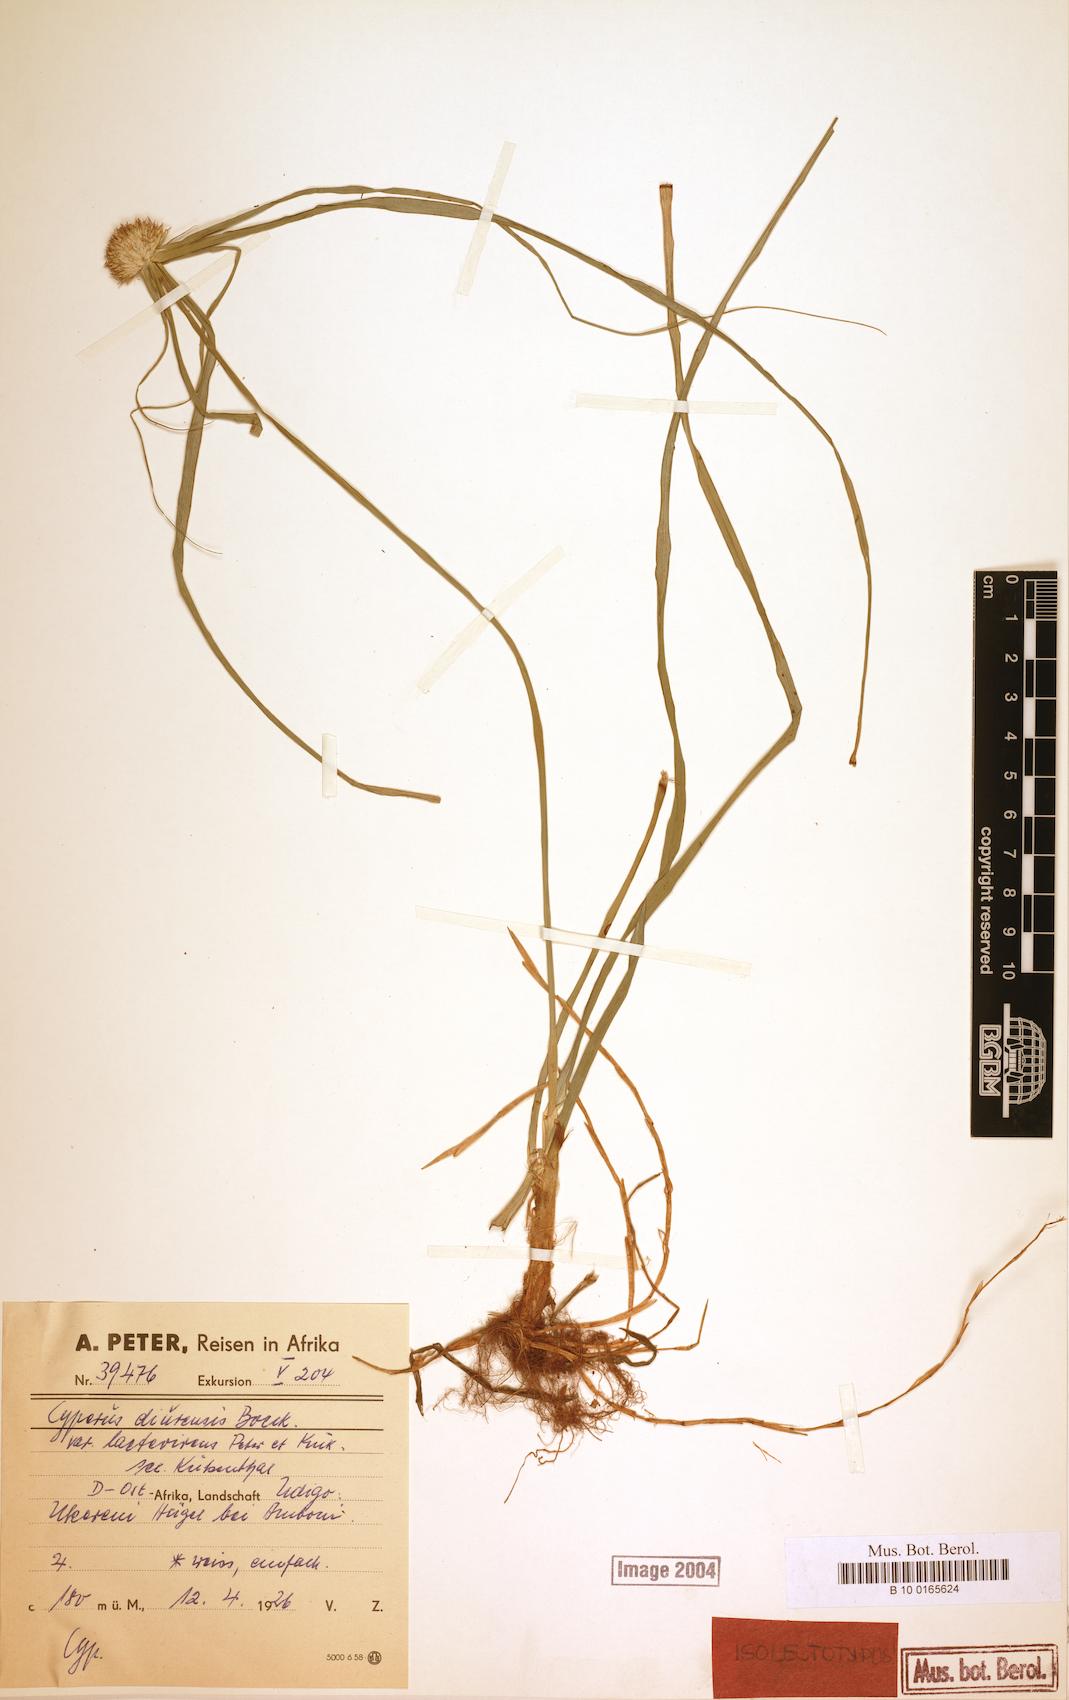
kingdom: Plantae
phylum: Tracheophyta
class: Liliopsida
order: Poales
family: Cyperaceae
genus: Cyperus
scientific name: Cyperus diurensis
